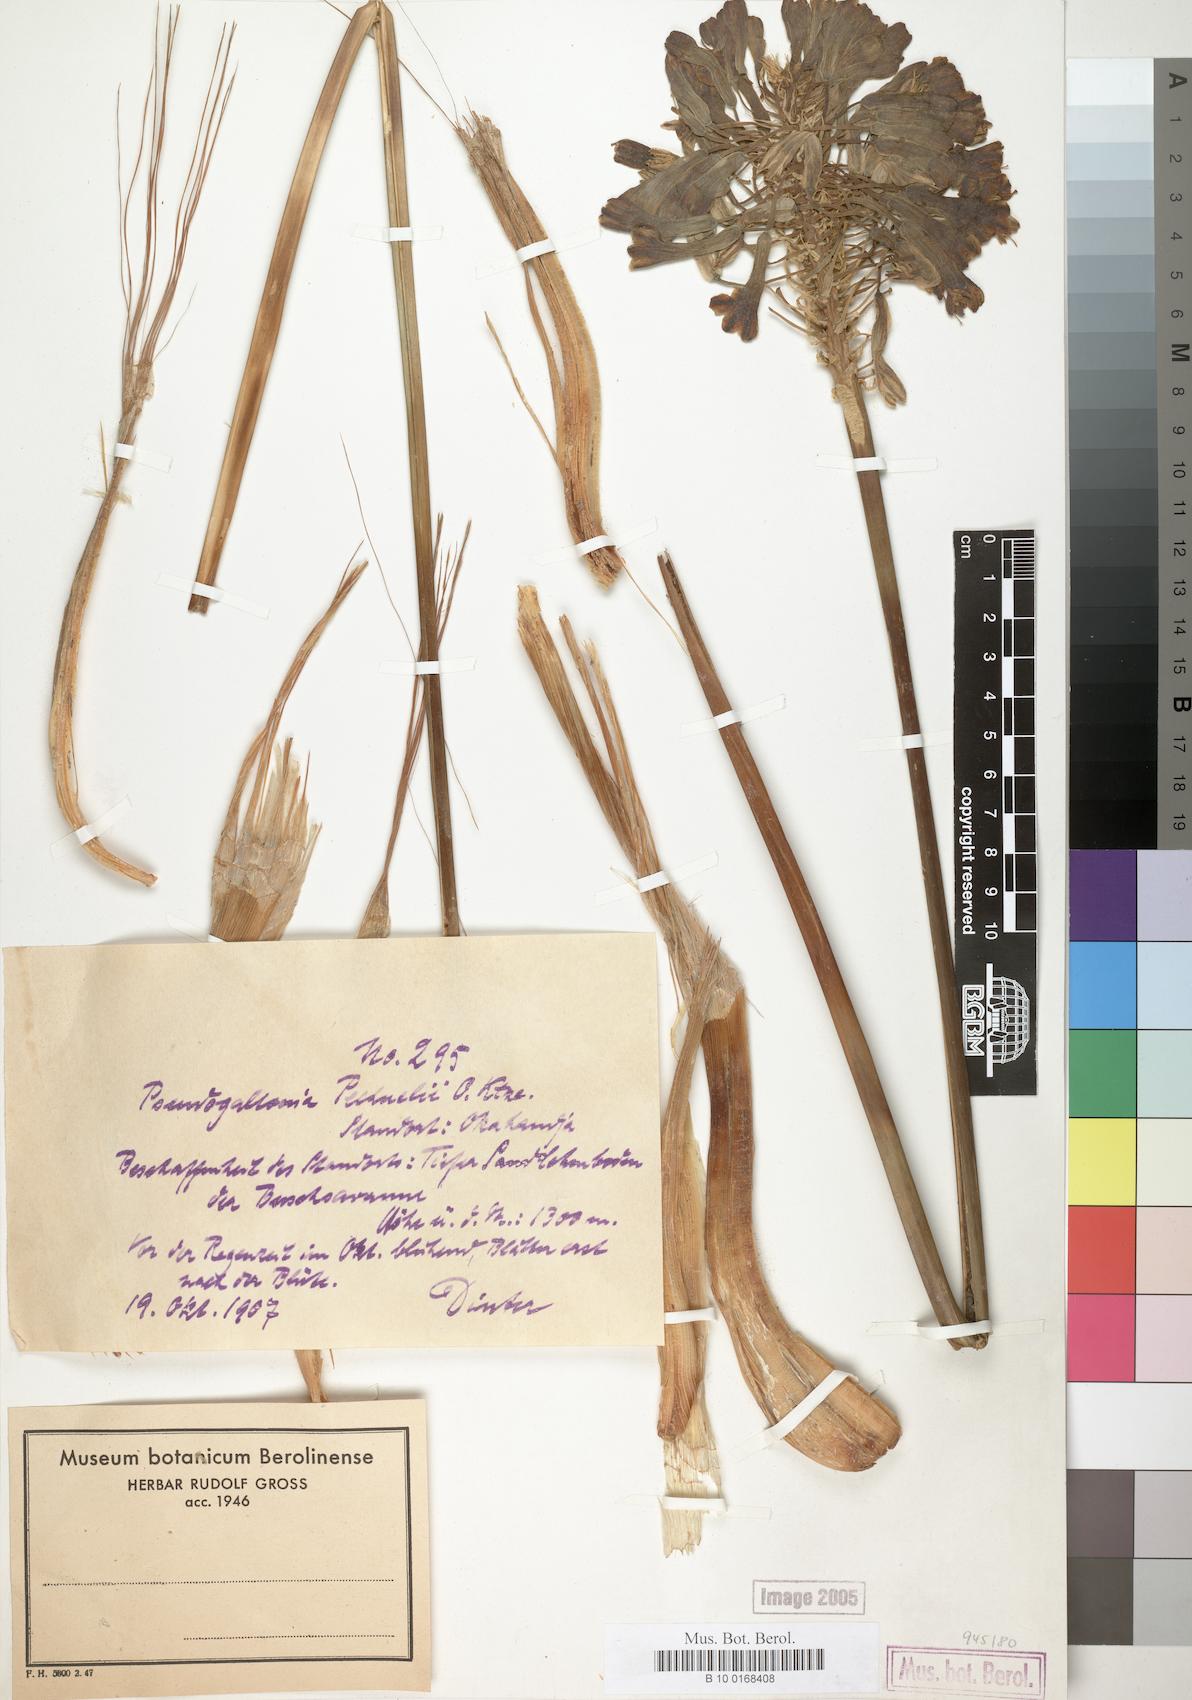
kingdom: Plantae
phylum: Tracheophyta
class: Liliopsida
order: Liliales
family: Liliaceae
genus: Pseudogaltonia
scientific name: Pseudogaltonia pechuelii
